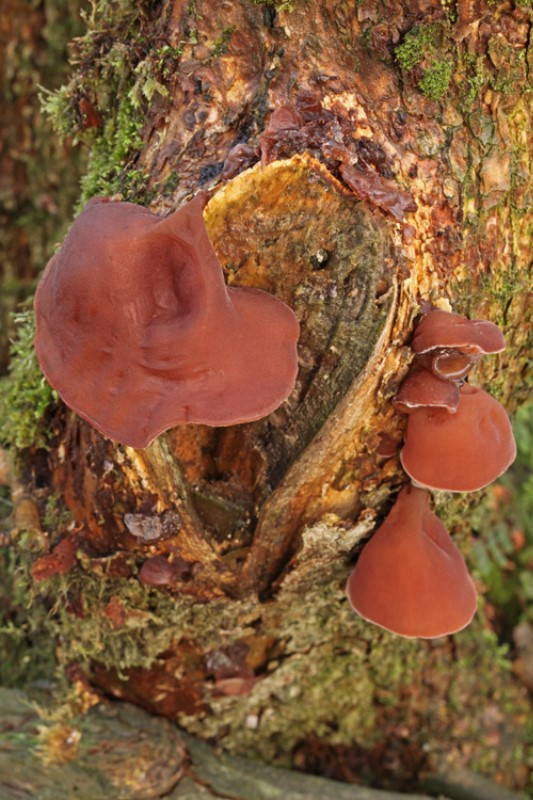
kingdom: Fungi
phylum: Basidiomycota
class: Agaricomycetes
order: Auriculariales
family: Auriculariaceae
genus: Auricularia
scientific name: Auricularia auricula-judae
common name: almindelig judasøre
